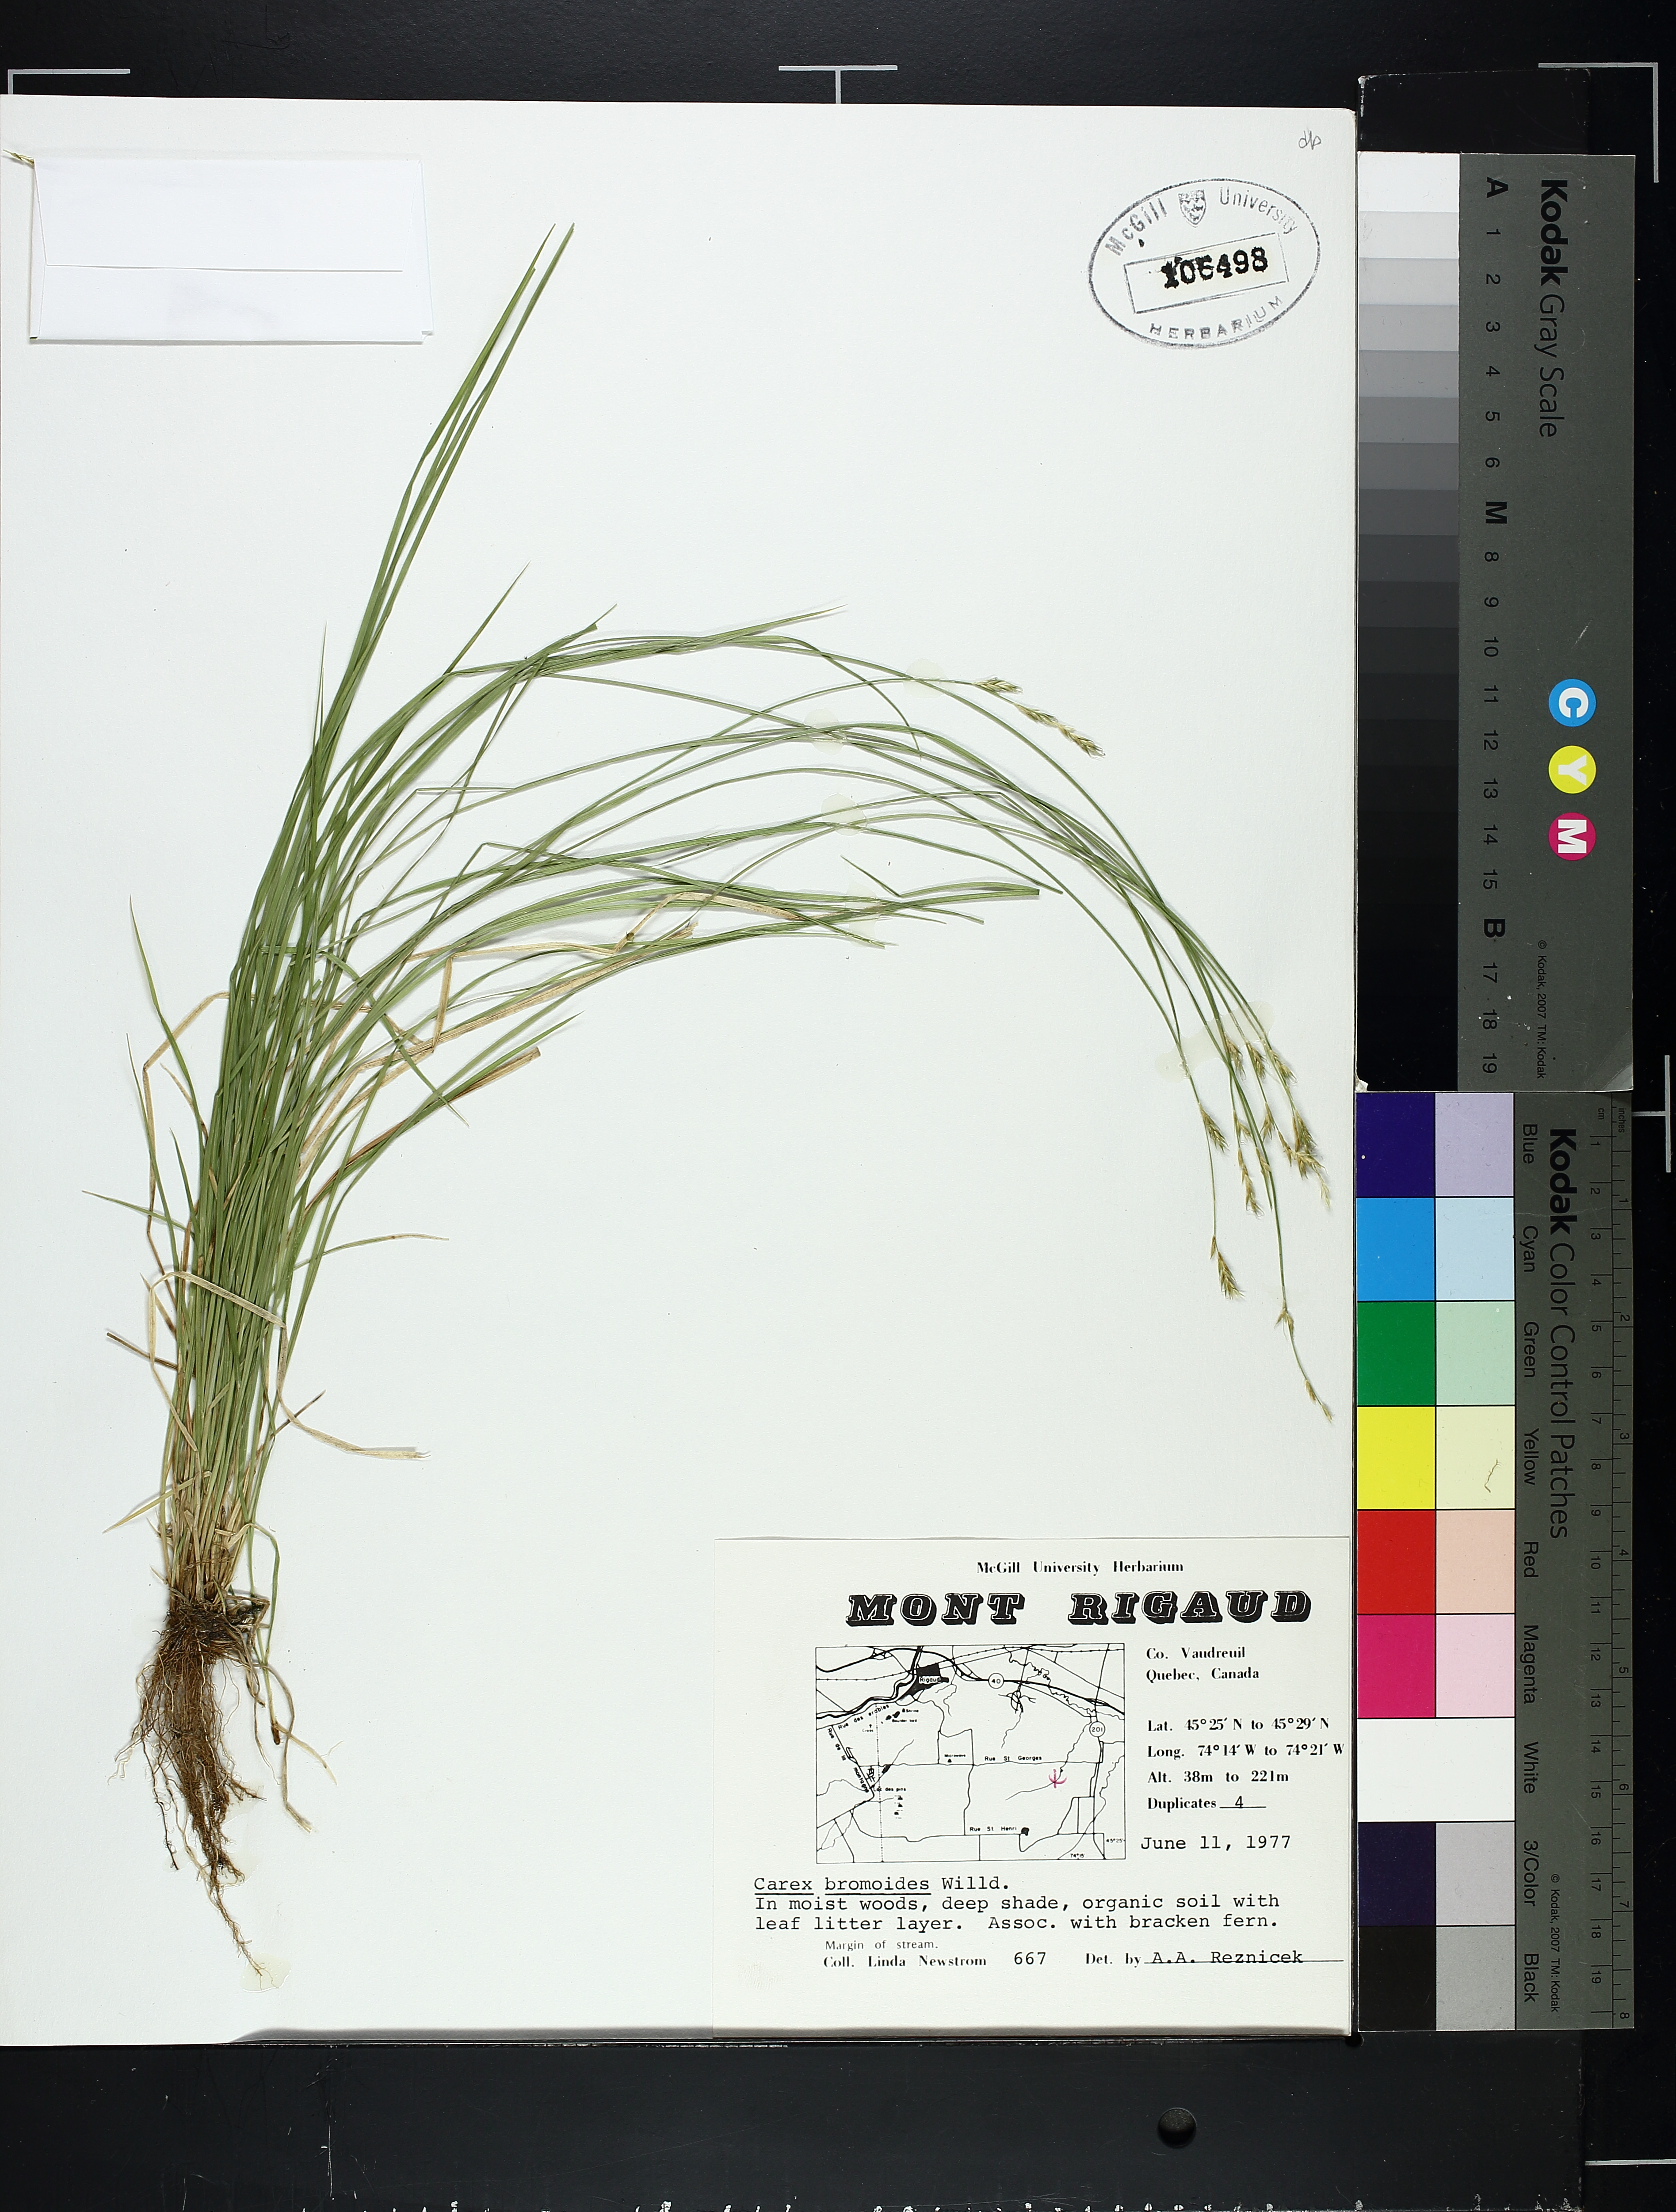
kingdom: Plantae
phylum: Tracheophyta
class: Magnoliopsida
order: Fagales
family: Juglandaceae
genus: Carya
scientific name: Carya ovata
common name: Shagbark hickory
